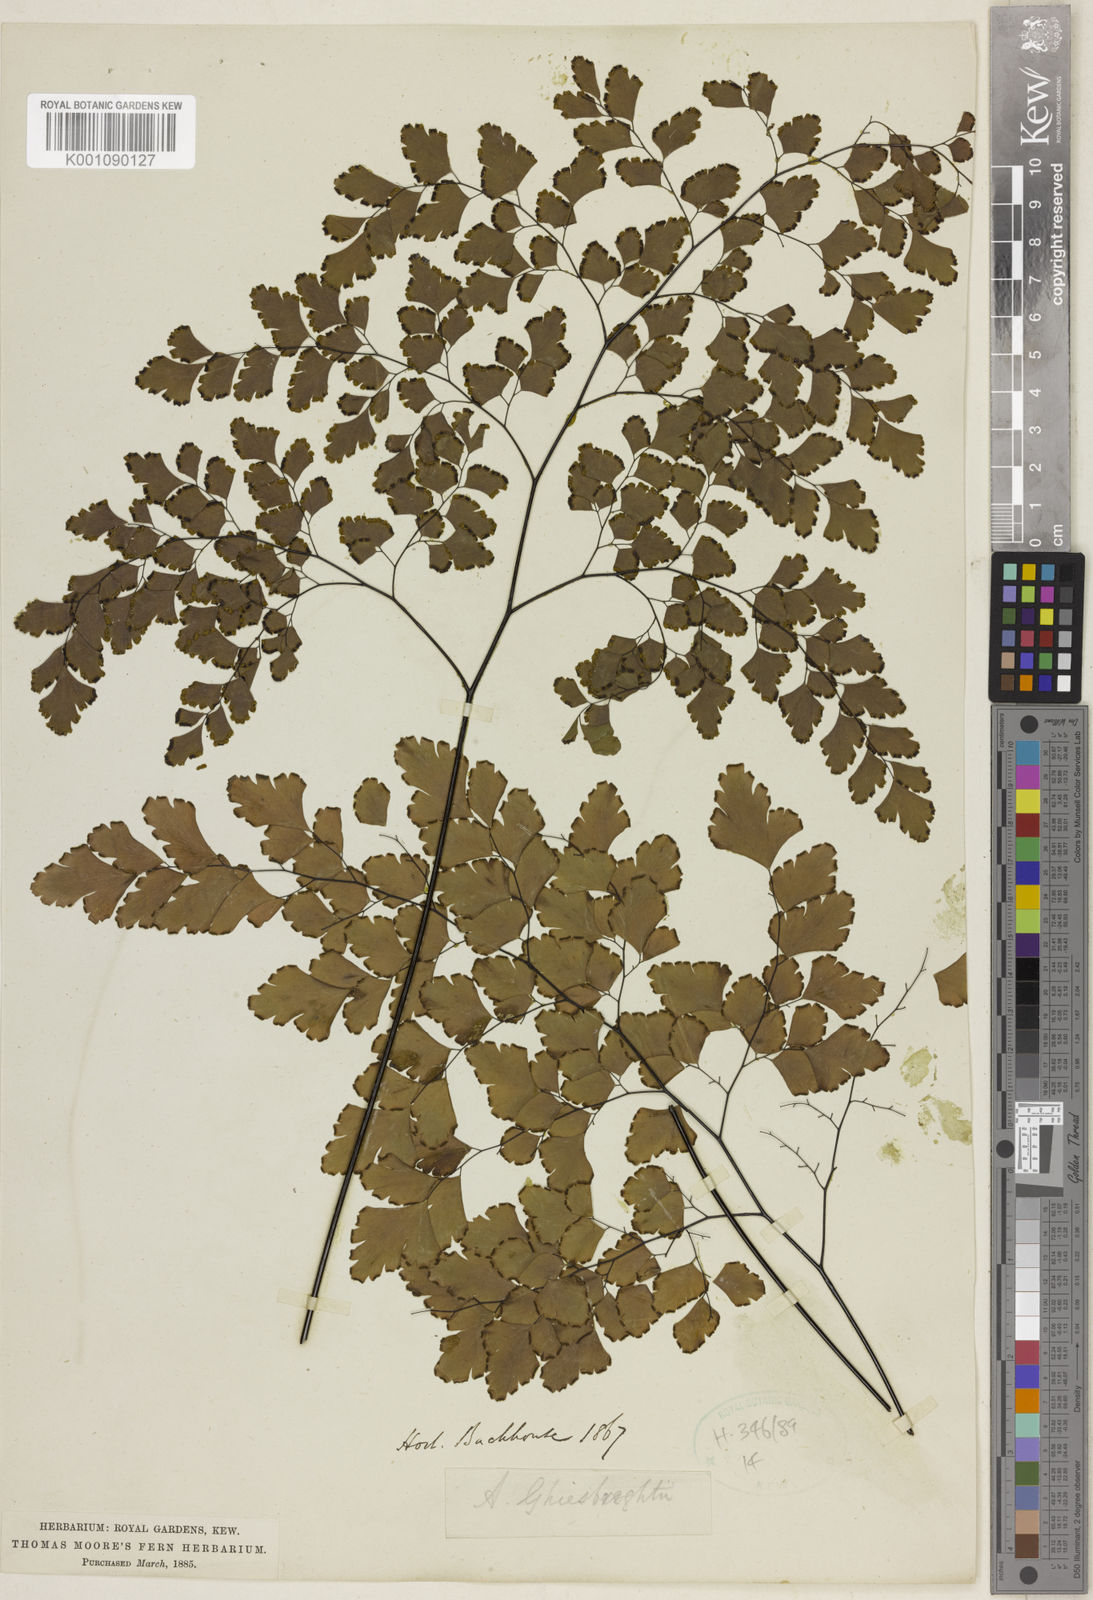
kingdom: Plantae
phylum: Tracheophyta
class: Polypodiopsida
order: Polypodiales
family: Pteridaceae
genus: Adiantum
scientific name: Adiantum tenerum
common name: Fan maidenhair
